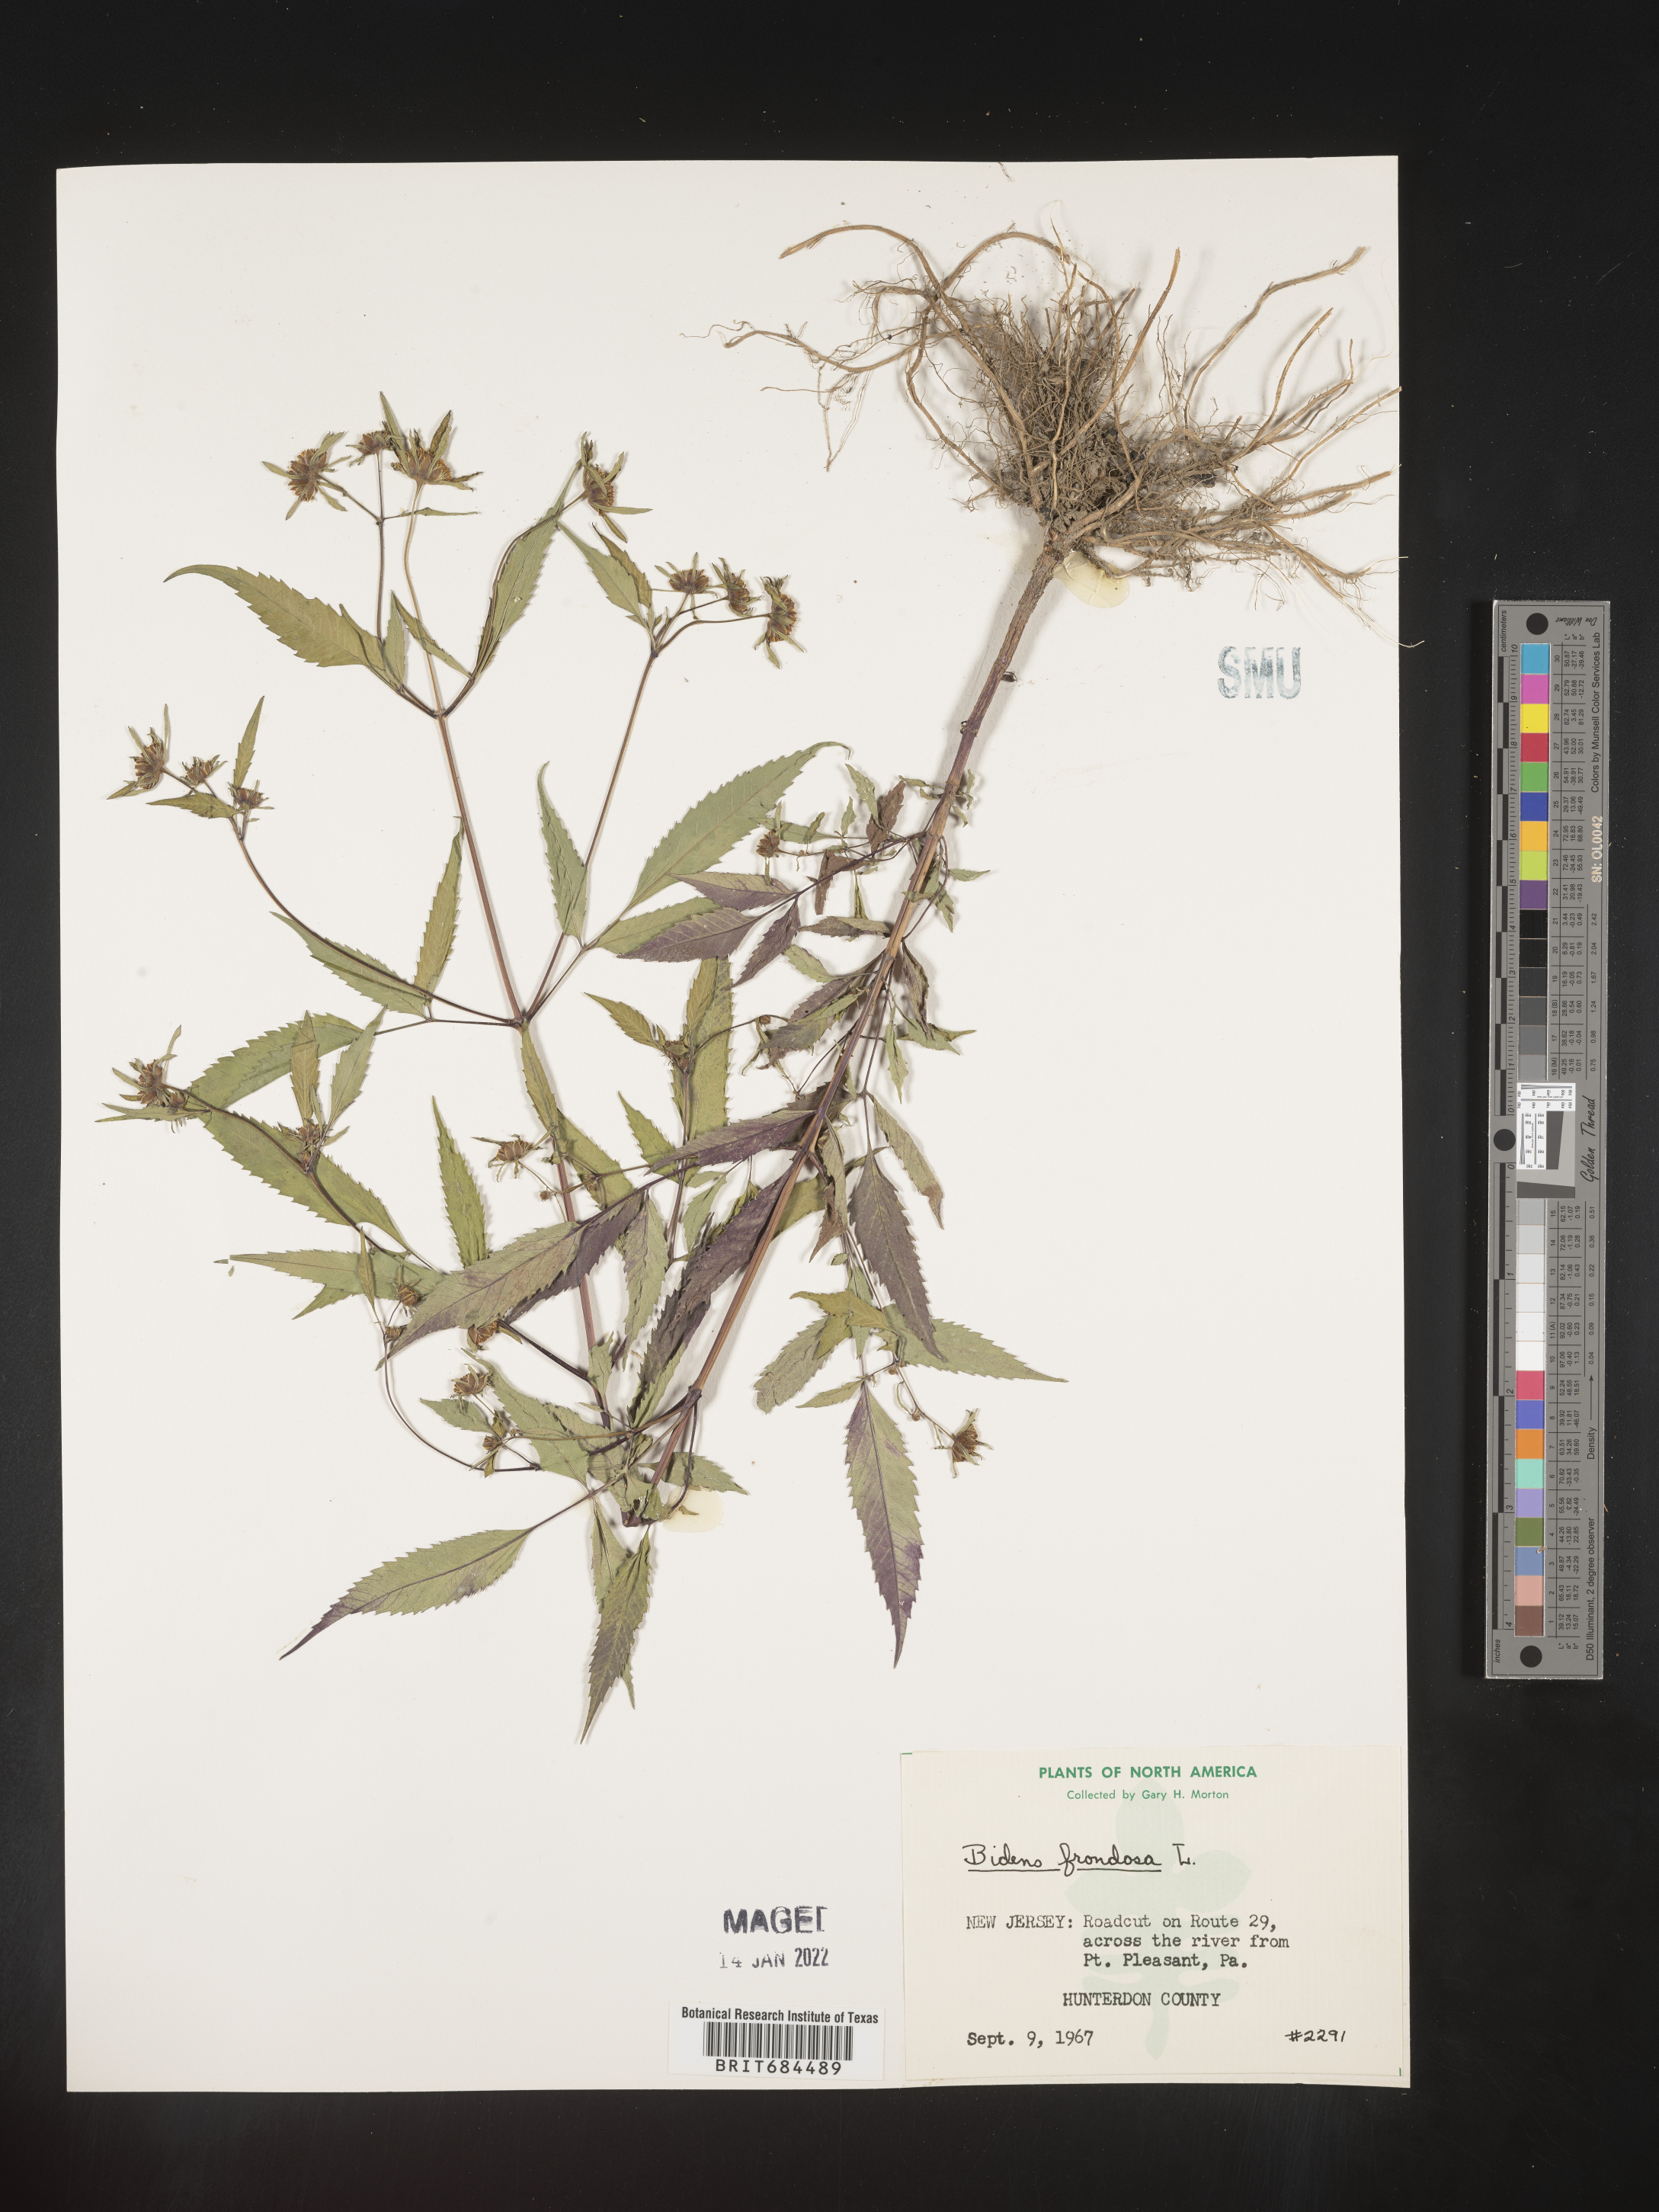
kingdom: Plantae
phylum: Tracheophyta
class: Magnoliopsida
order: Asterales
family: Asteraceae
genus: Bidens
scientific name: Bidens frondosa
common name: Beggarticks
